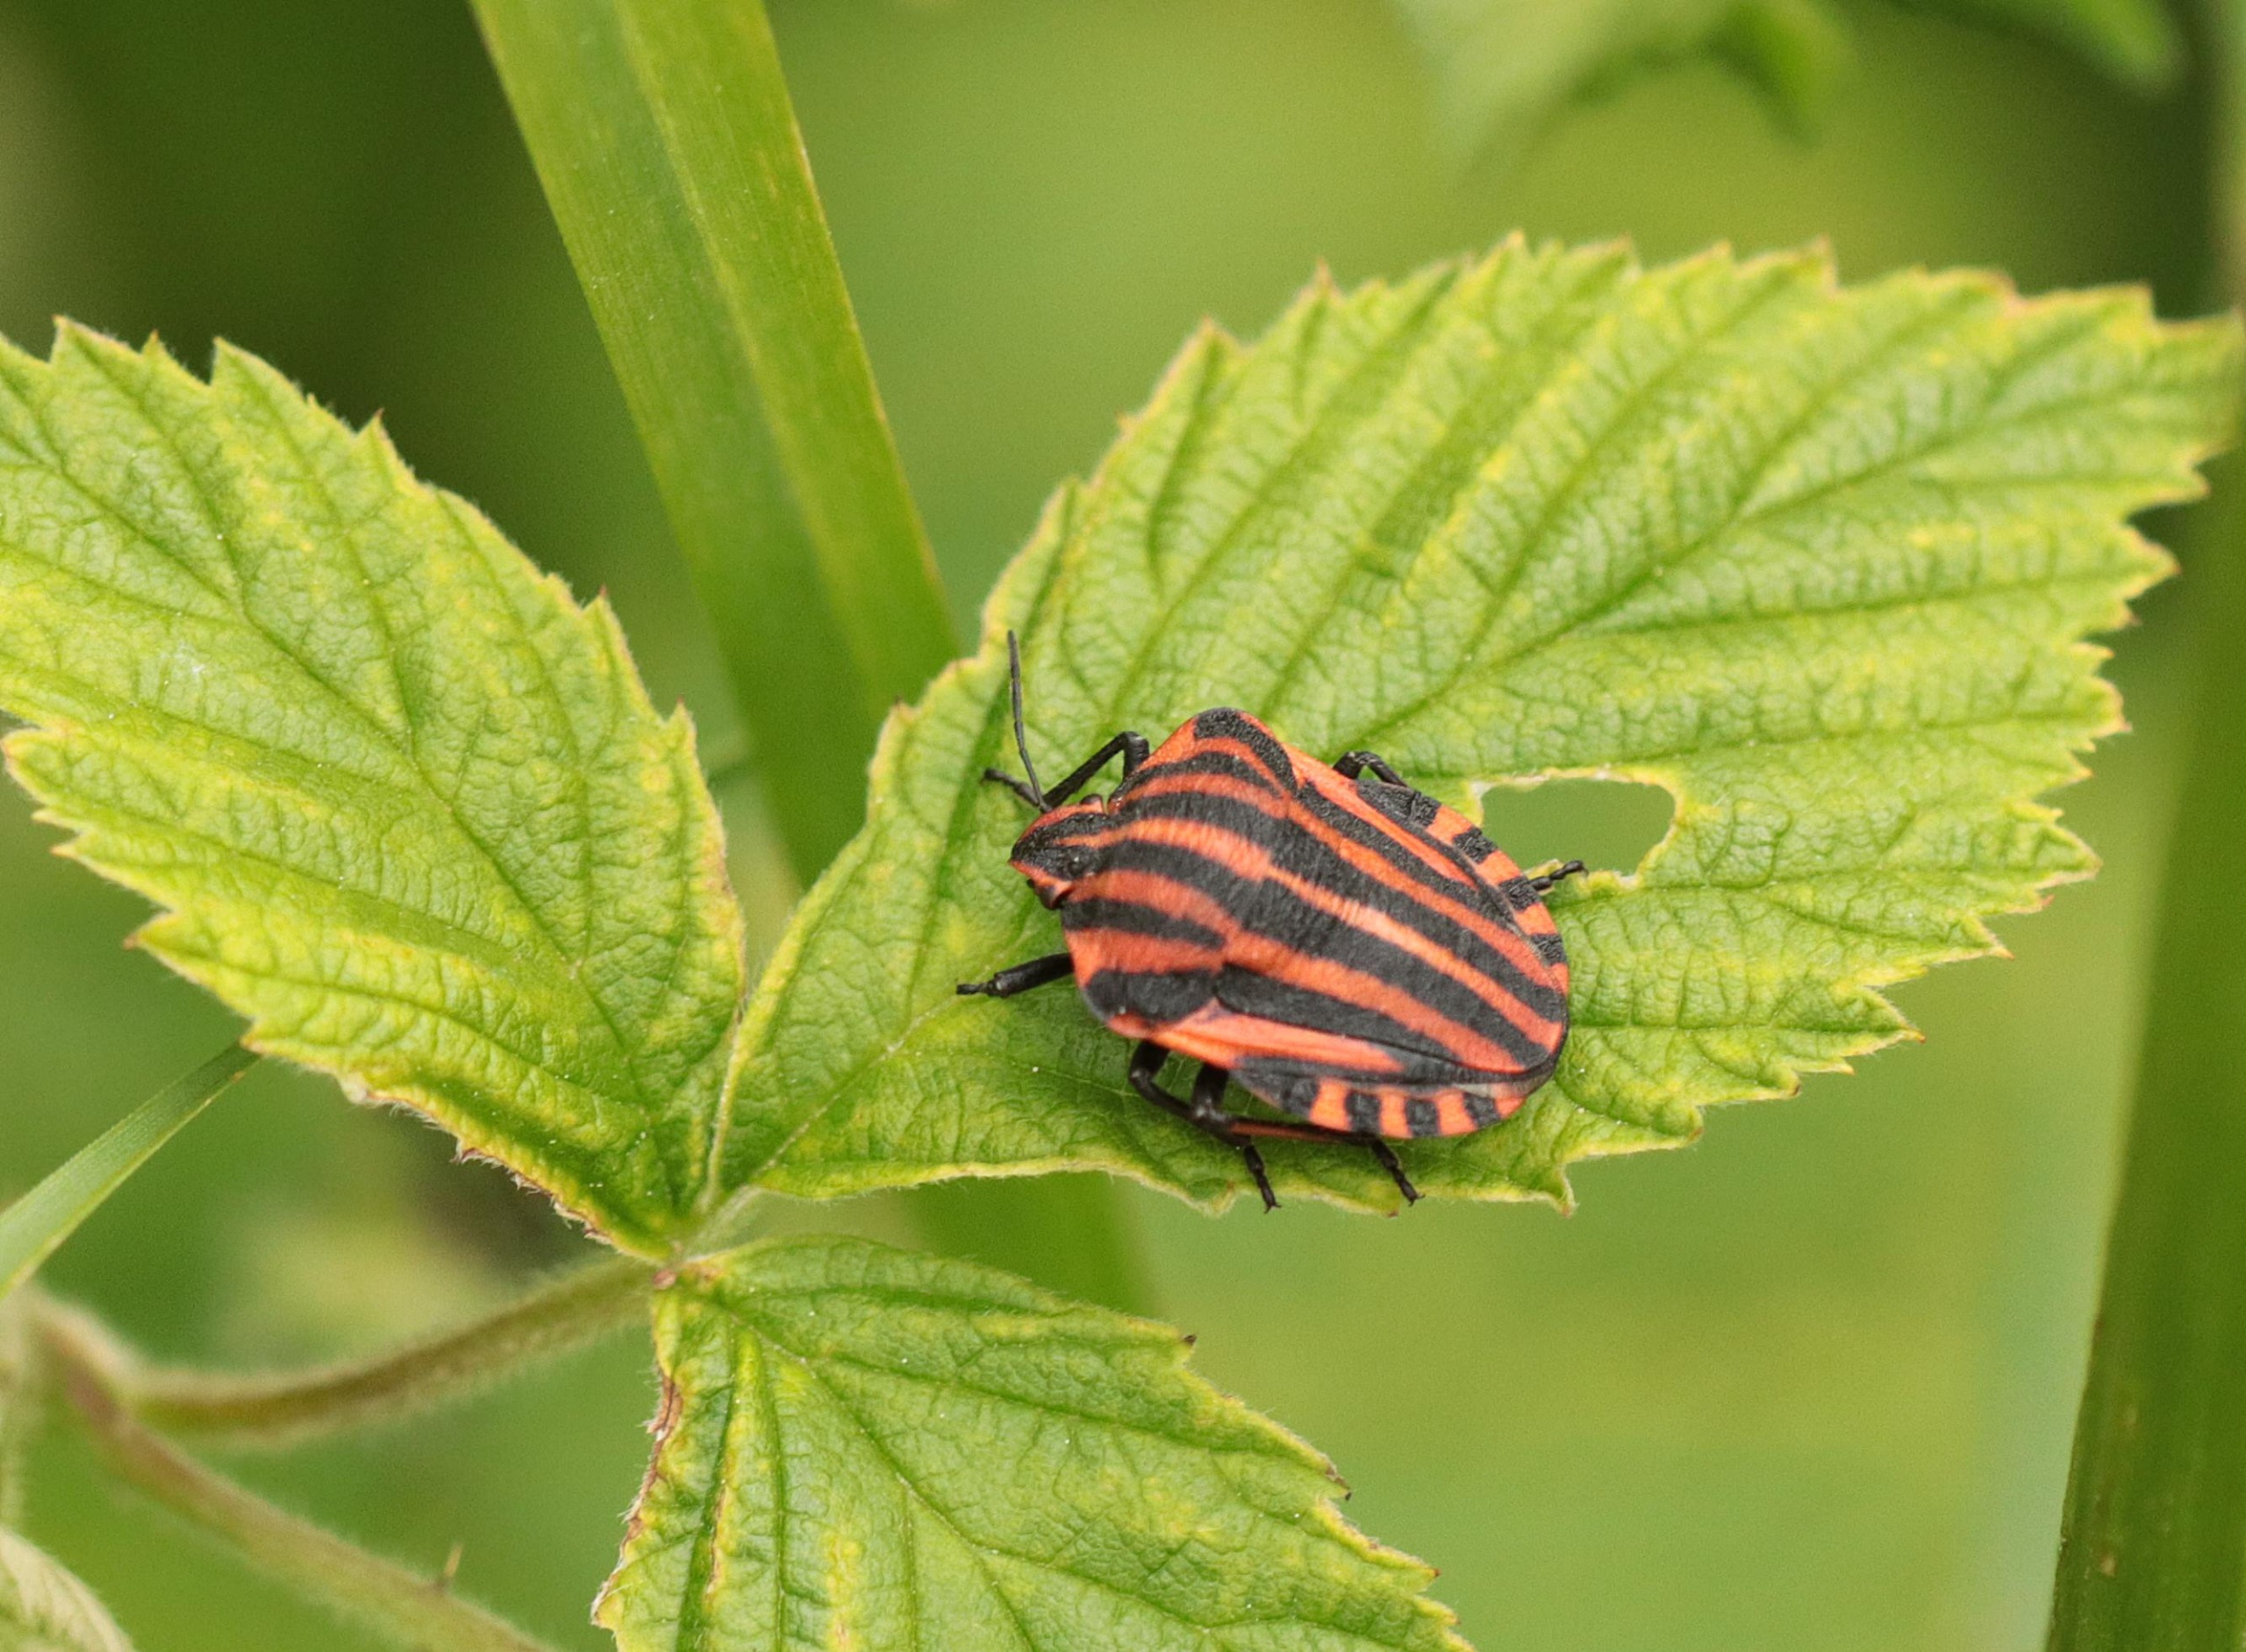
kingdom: Animalia
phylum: Arthropoda
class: Insecta
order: Hemiptera
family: Pentatomidae
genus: Graphosoma
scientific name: Graphosoma italicum
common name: Stribetæge
